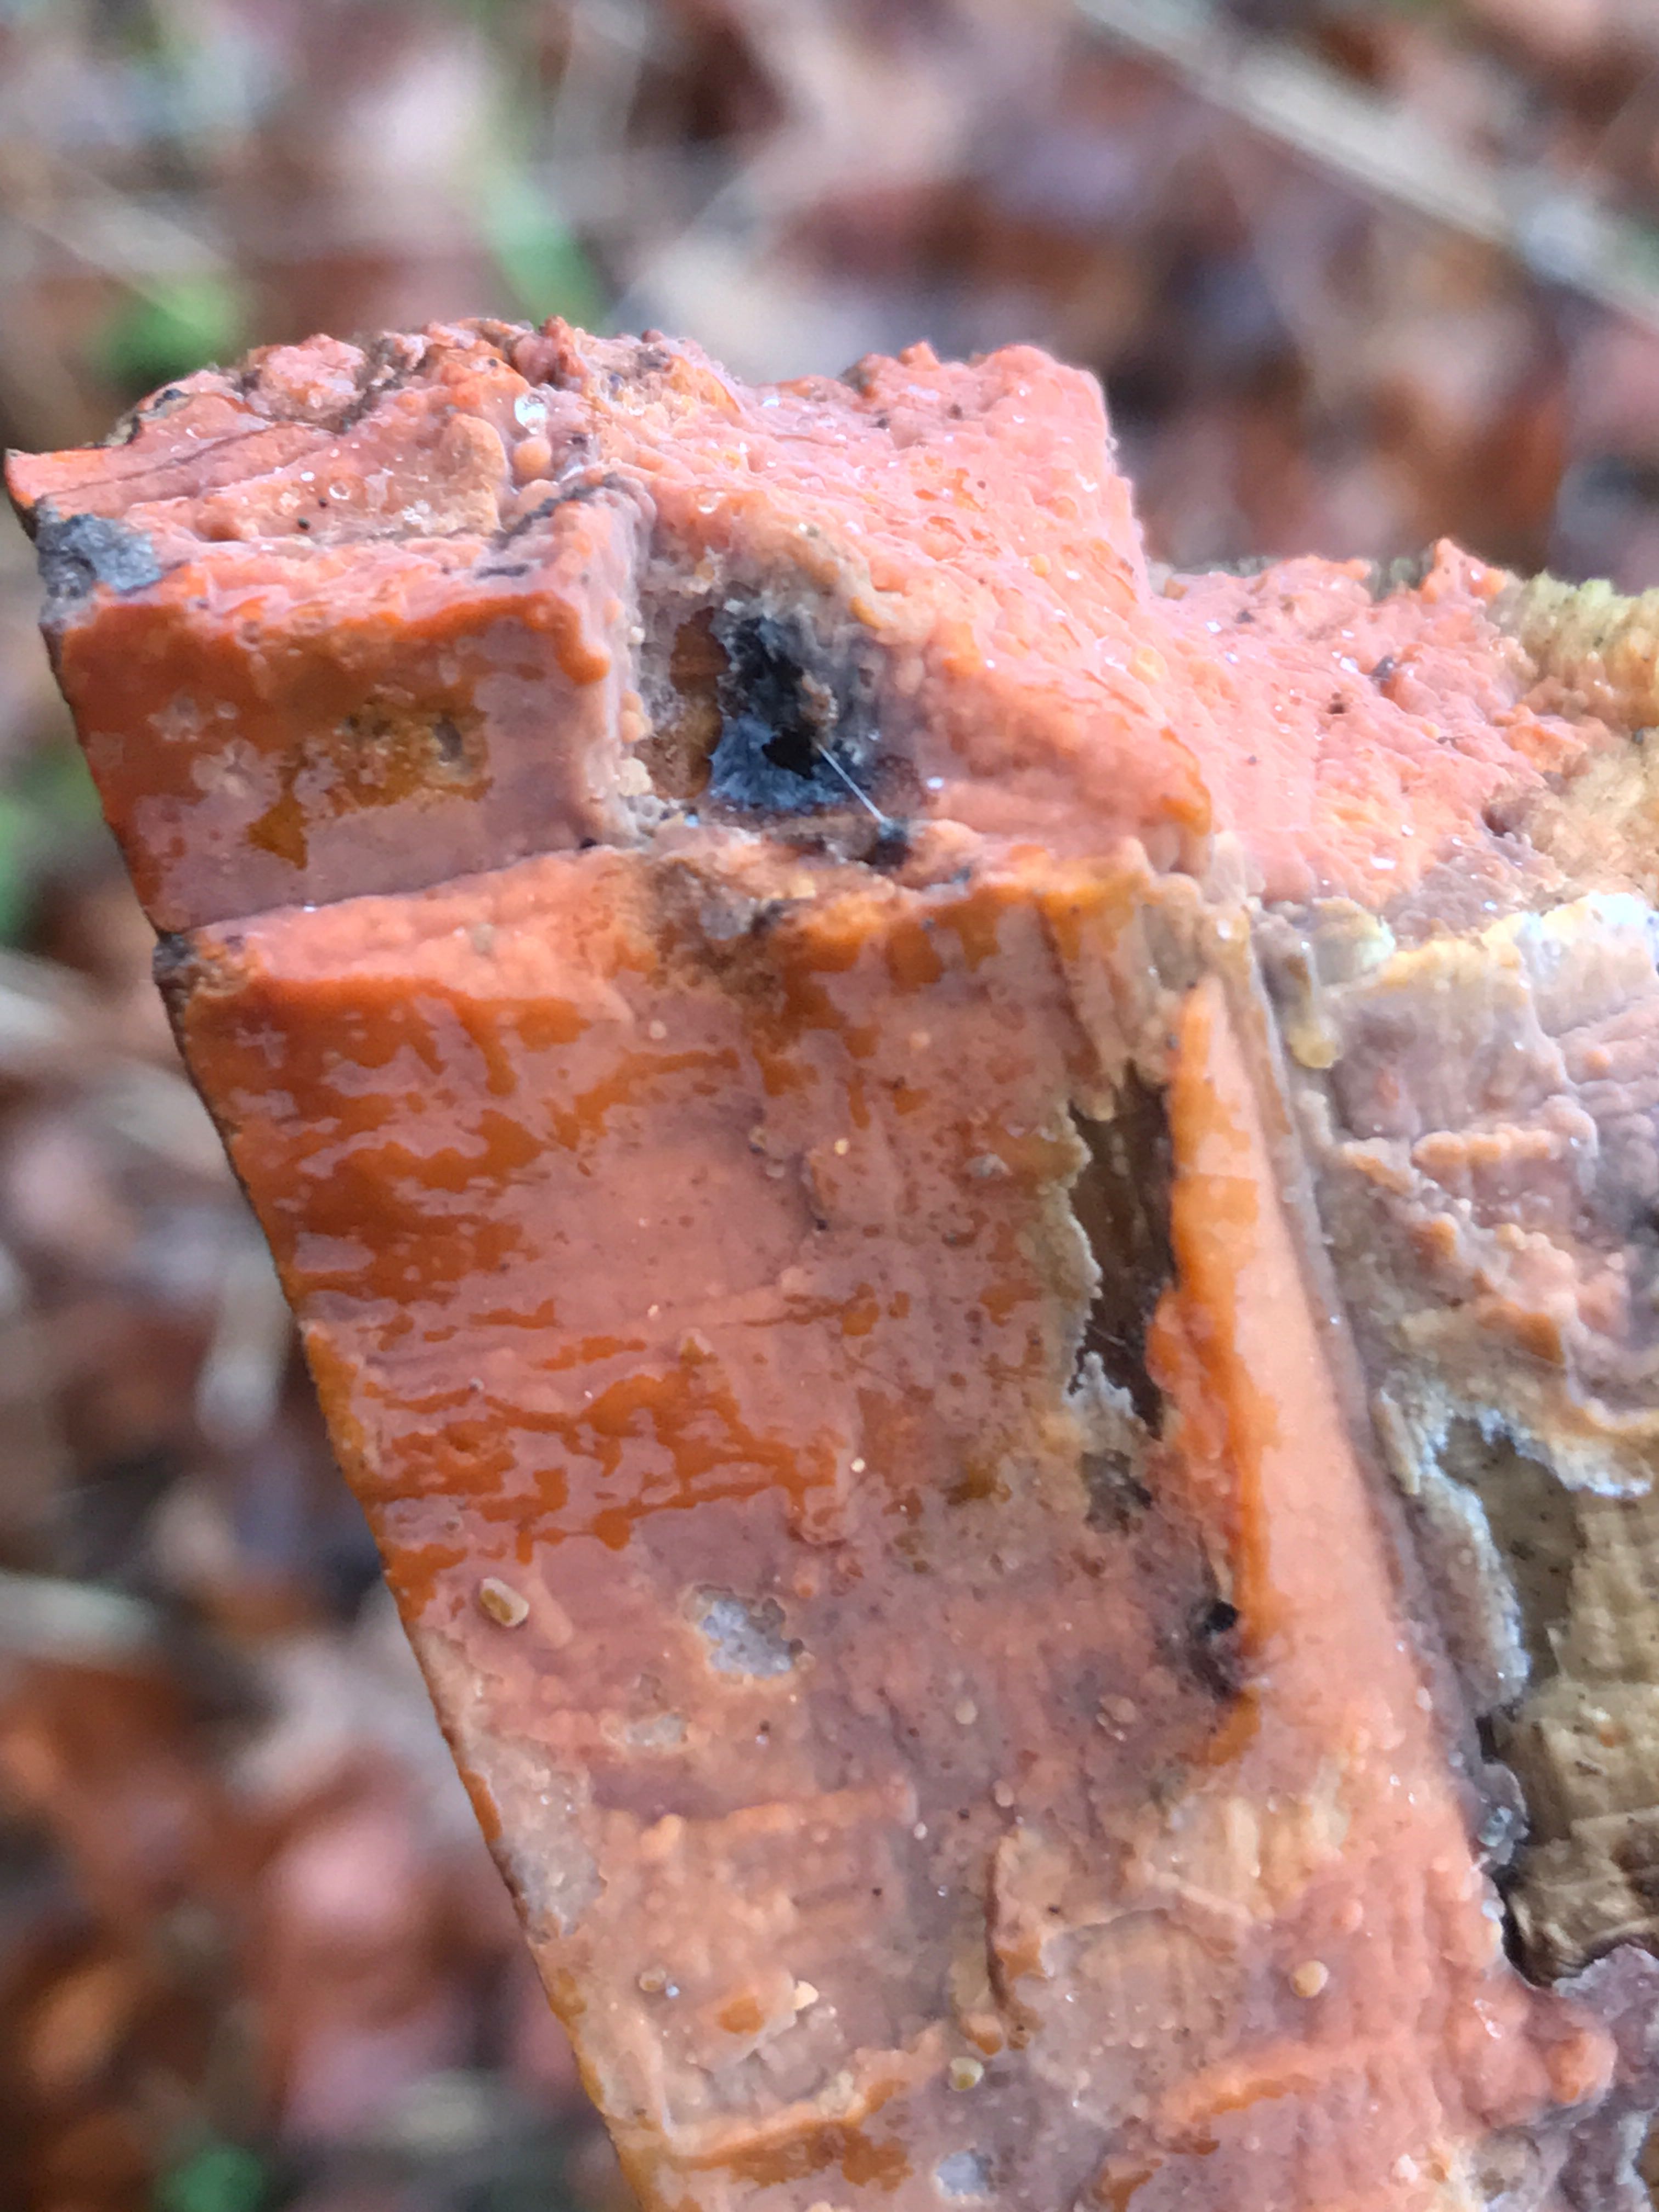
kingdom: Fungi
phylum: Basidiomycota
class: Agaricomycetes
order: Russulales
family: Peniophoraceae
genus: Peniophora
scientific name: Peniophora incarnata
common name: laksefarvet voksskind
